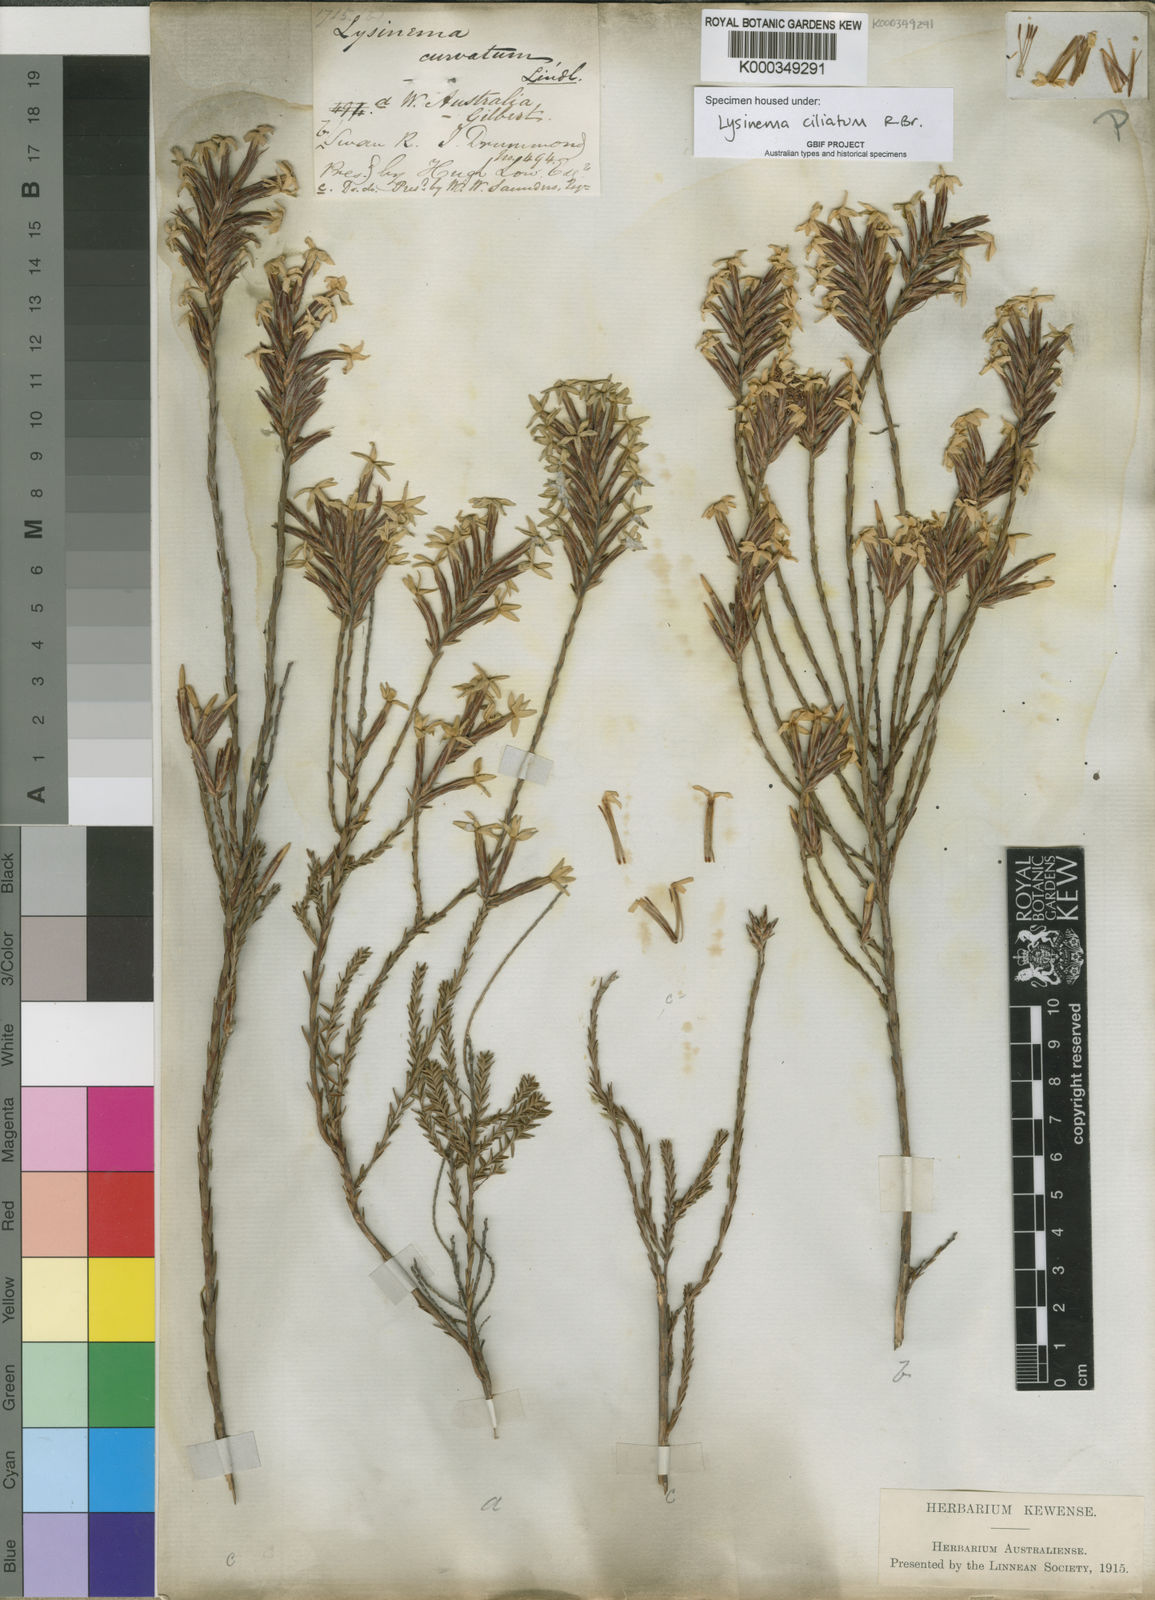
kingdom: Plantae
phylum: Tracheophyta
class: Magnoliopsida
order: Ericales
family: Ericaceae
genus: Lysinema
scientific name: Lysinema ciliatum
